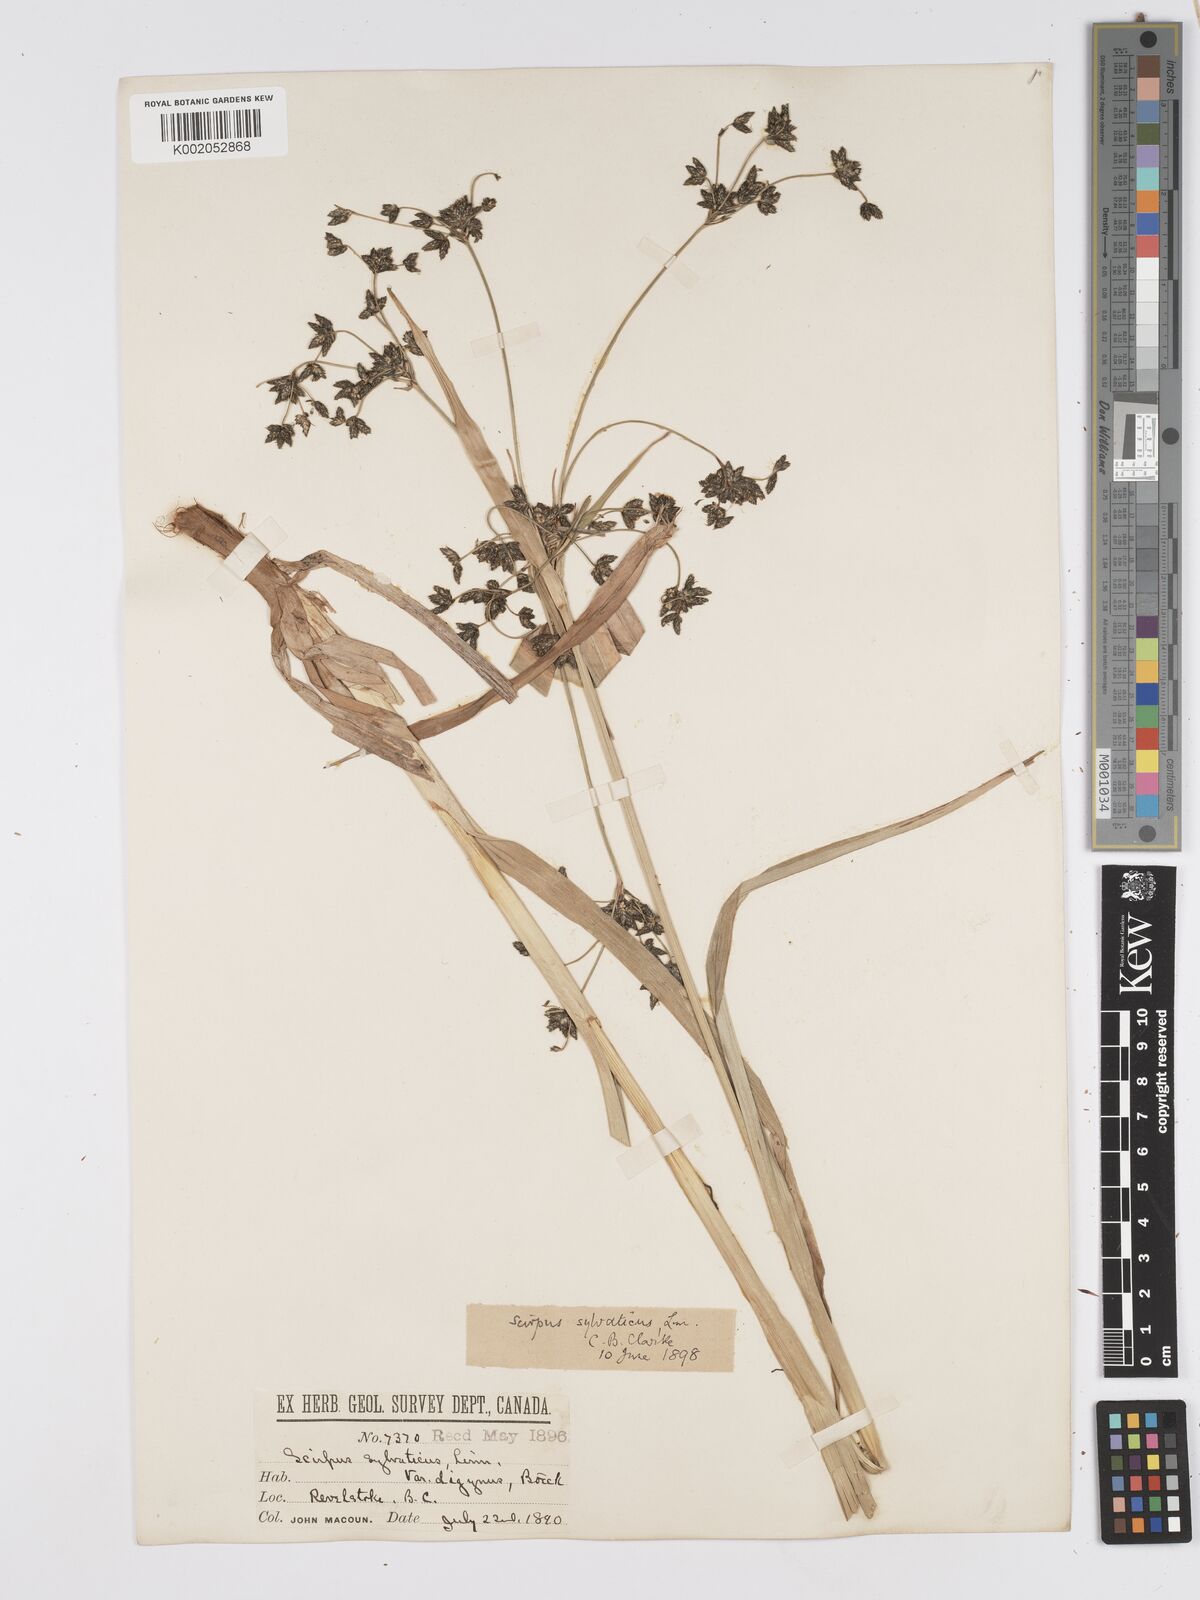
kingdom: Plantae
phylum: Tracheophyta
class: Liliopsida
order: Poales
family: Cyperaceae
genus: Scirpus
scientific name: Scirpus sylvaticus
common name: Wood club-rush
